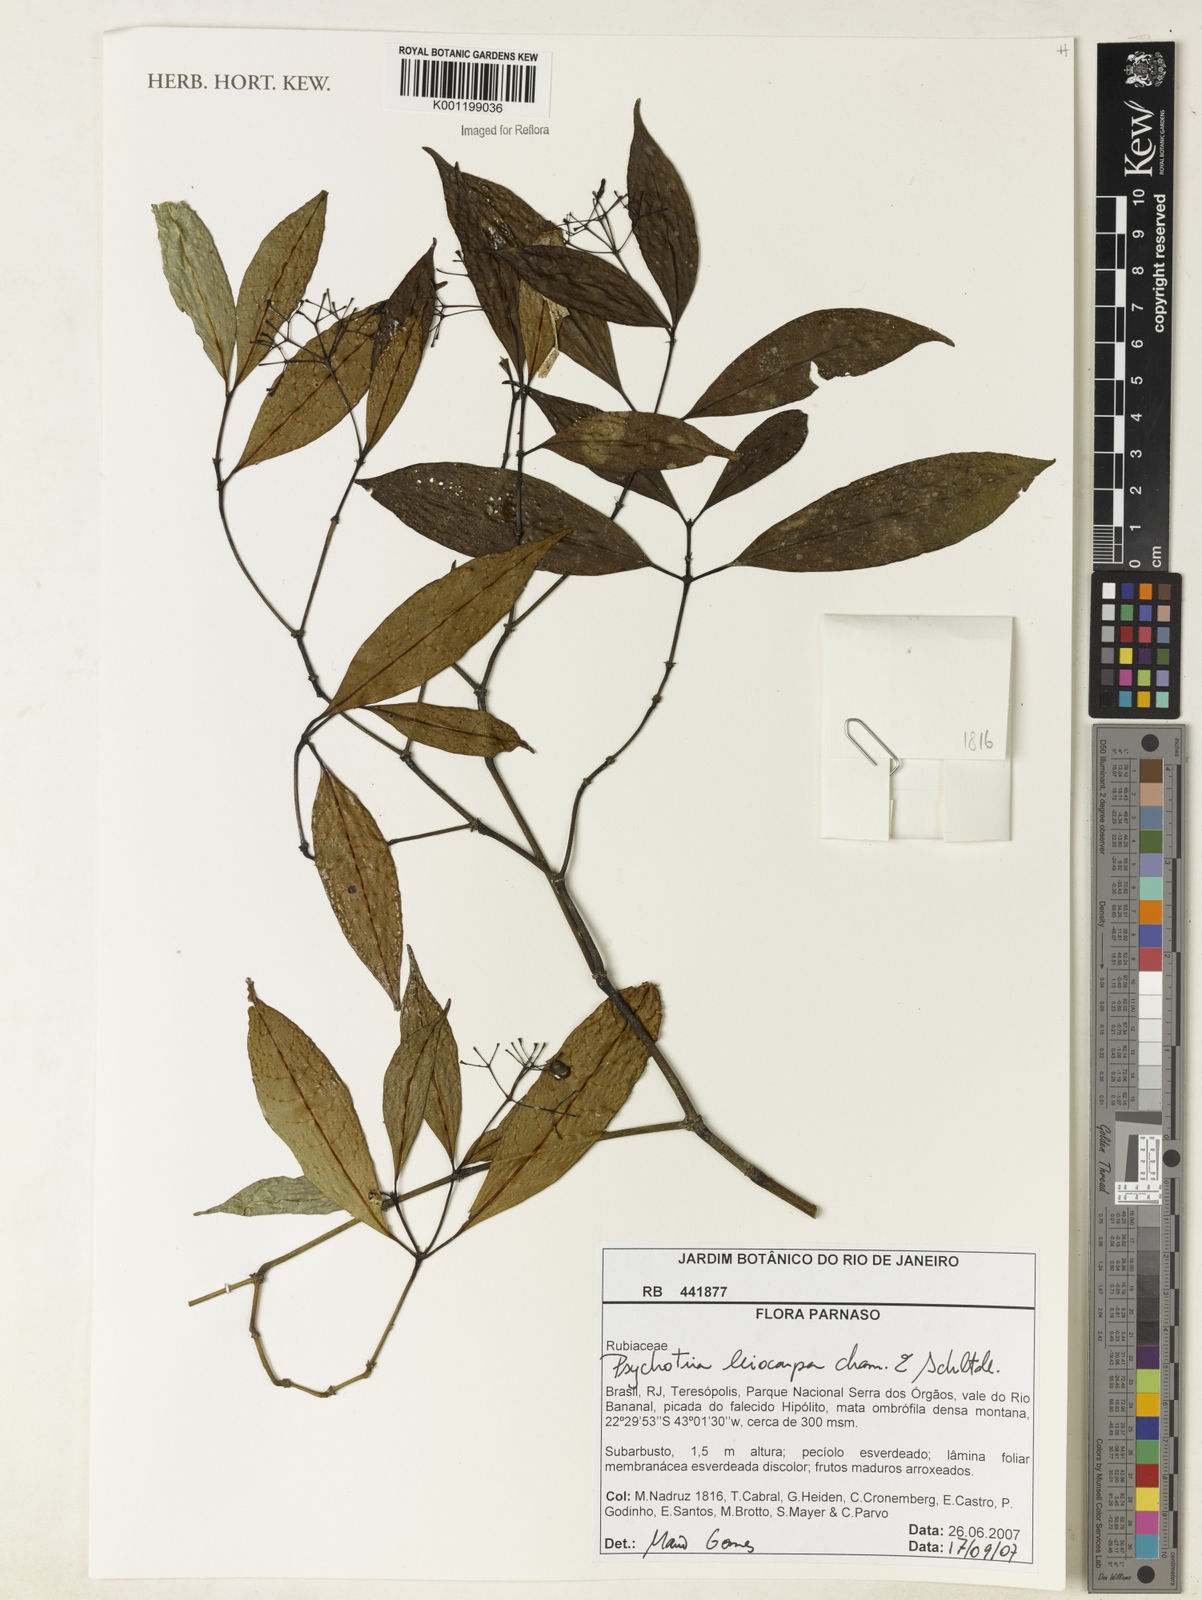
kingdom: Plantae
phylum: Tracheophyta
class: Magnoliopsida
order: Gentianales
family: Rubiaceae
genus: Psychotria
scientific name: Psychotria leiocarpa
